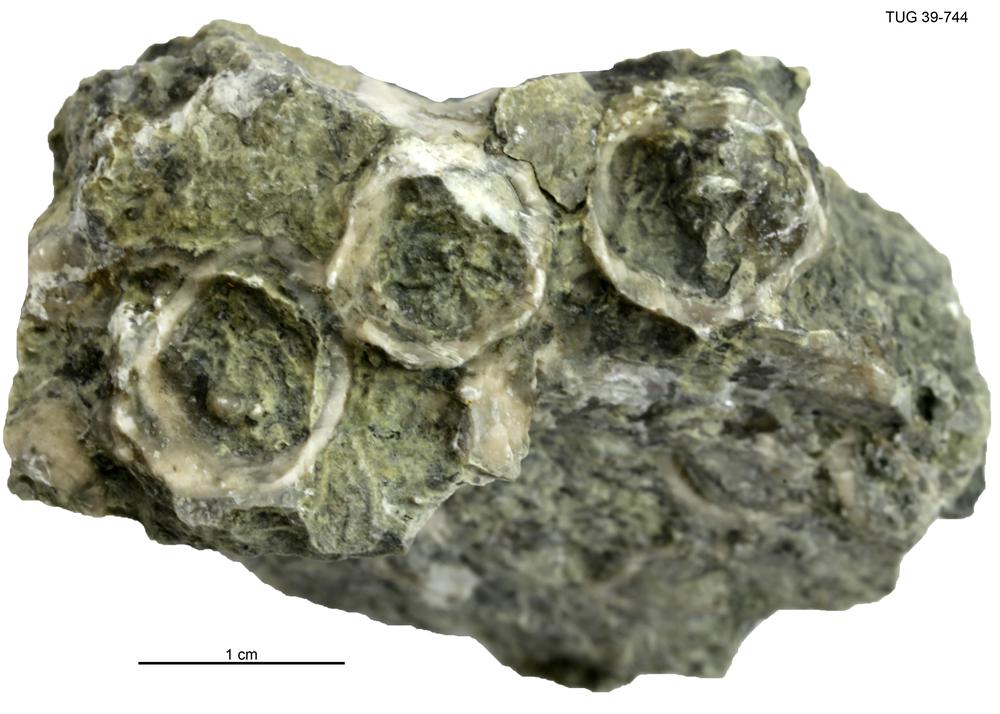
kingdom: Animalia
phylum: Echinodermata
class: Crinoidea
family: Cyathocystidae
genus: Cyathocystis
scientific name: Cyathocystis
